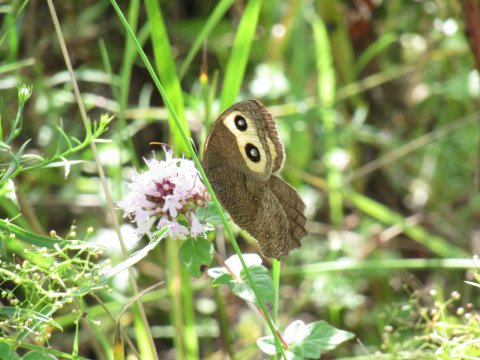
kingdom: Animalia
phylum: Arthropoda
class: Insecta
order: Lepidoptera
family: Nymphalidae
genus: Cercyonis
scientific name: Cercyonis pegala
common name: Common Wood-Nymph
